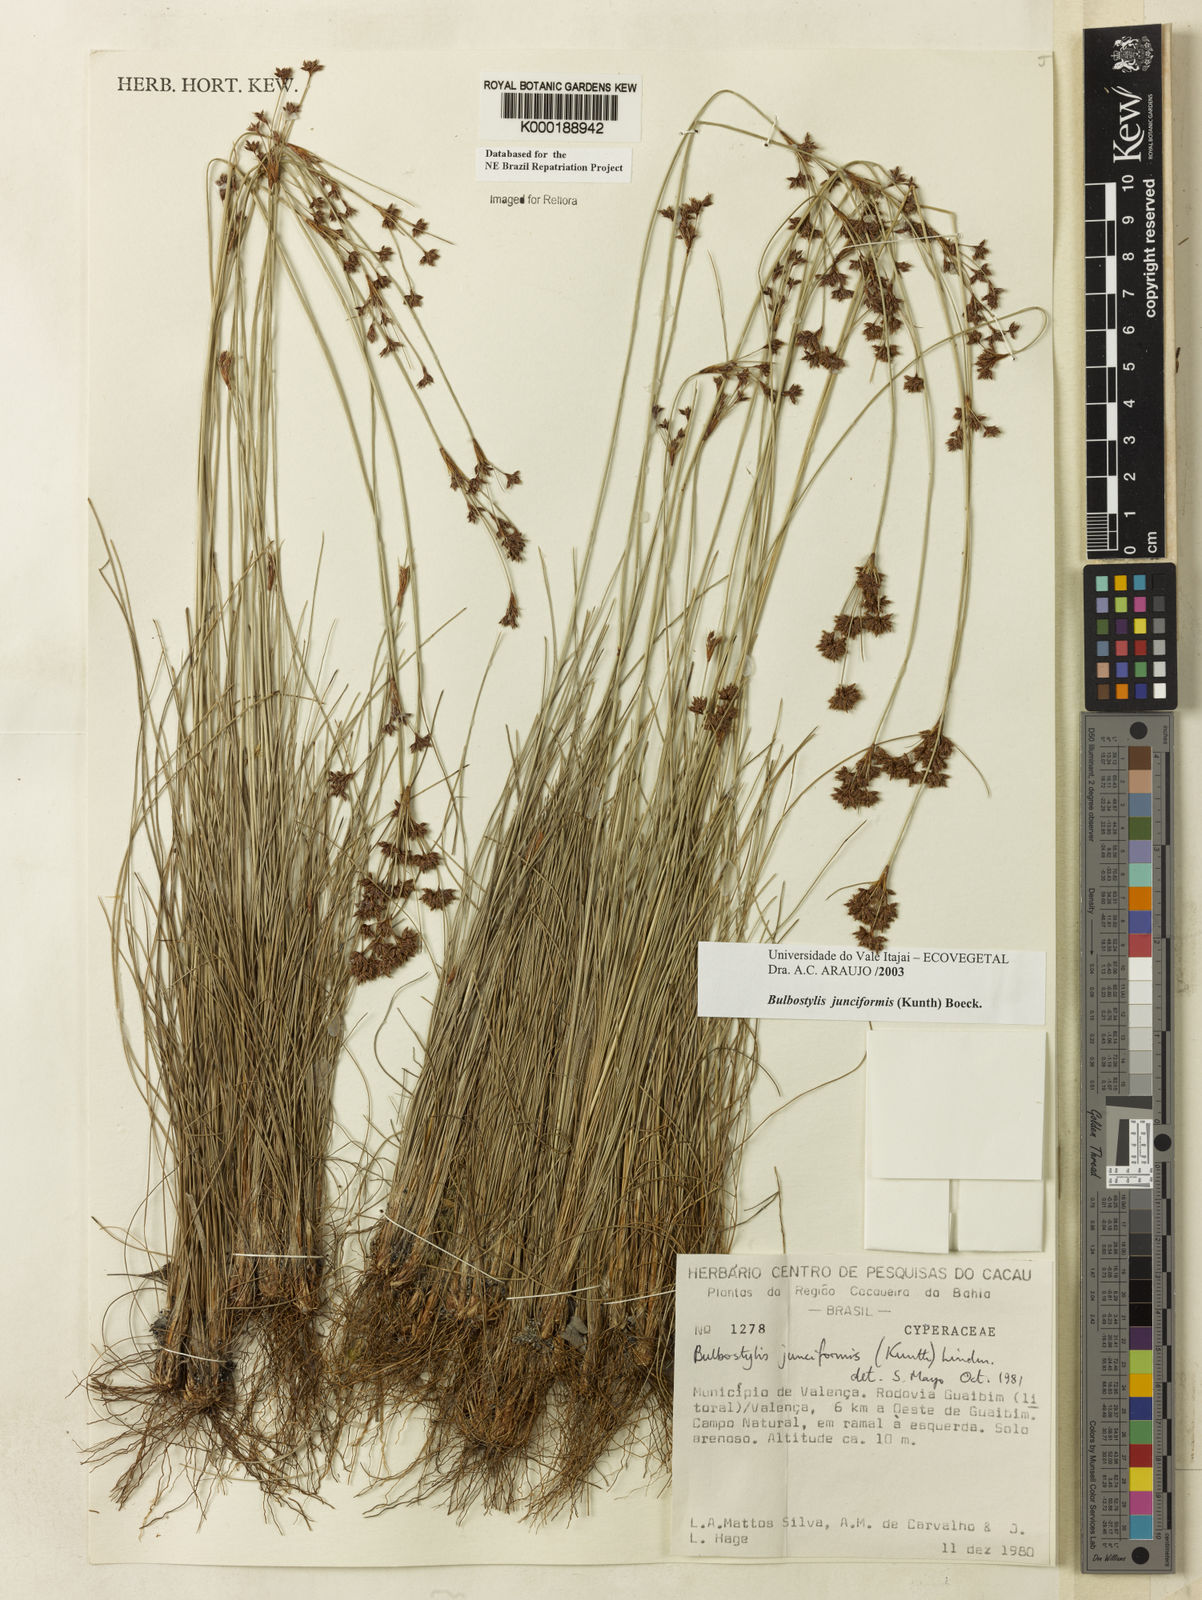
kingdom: Plantae
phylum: Tracheophyta
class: Liliopsida
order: Poales
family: Cyperaceae
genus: Bulbostylis
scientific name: Bulbostylis
